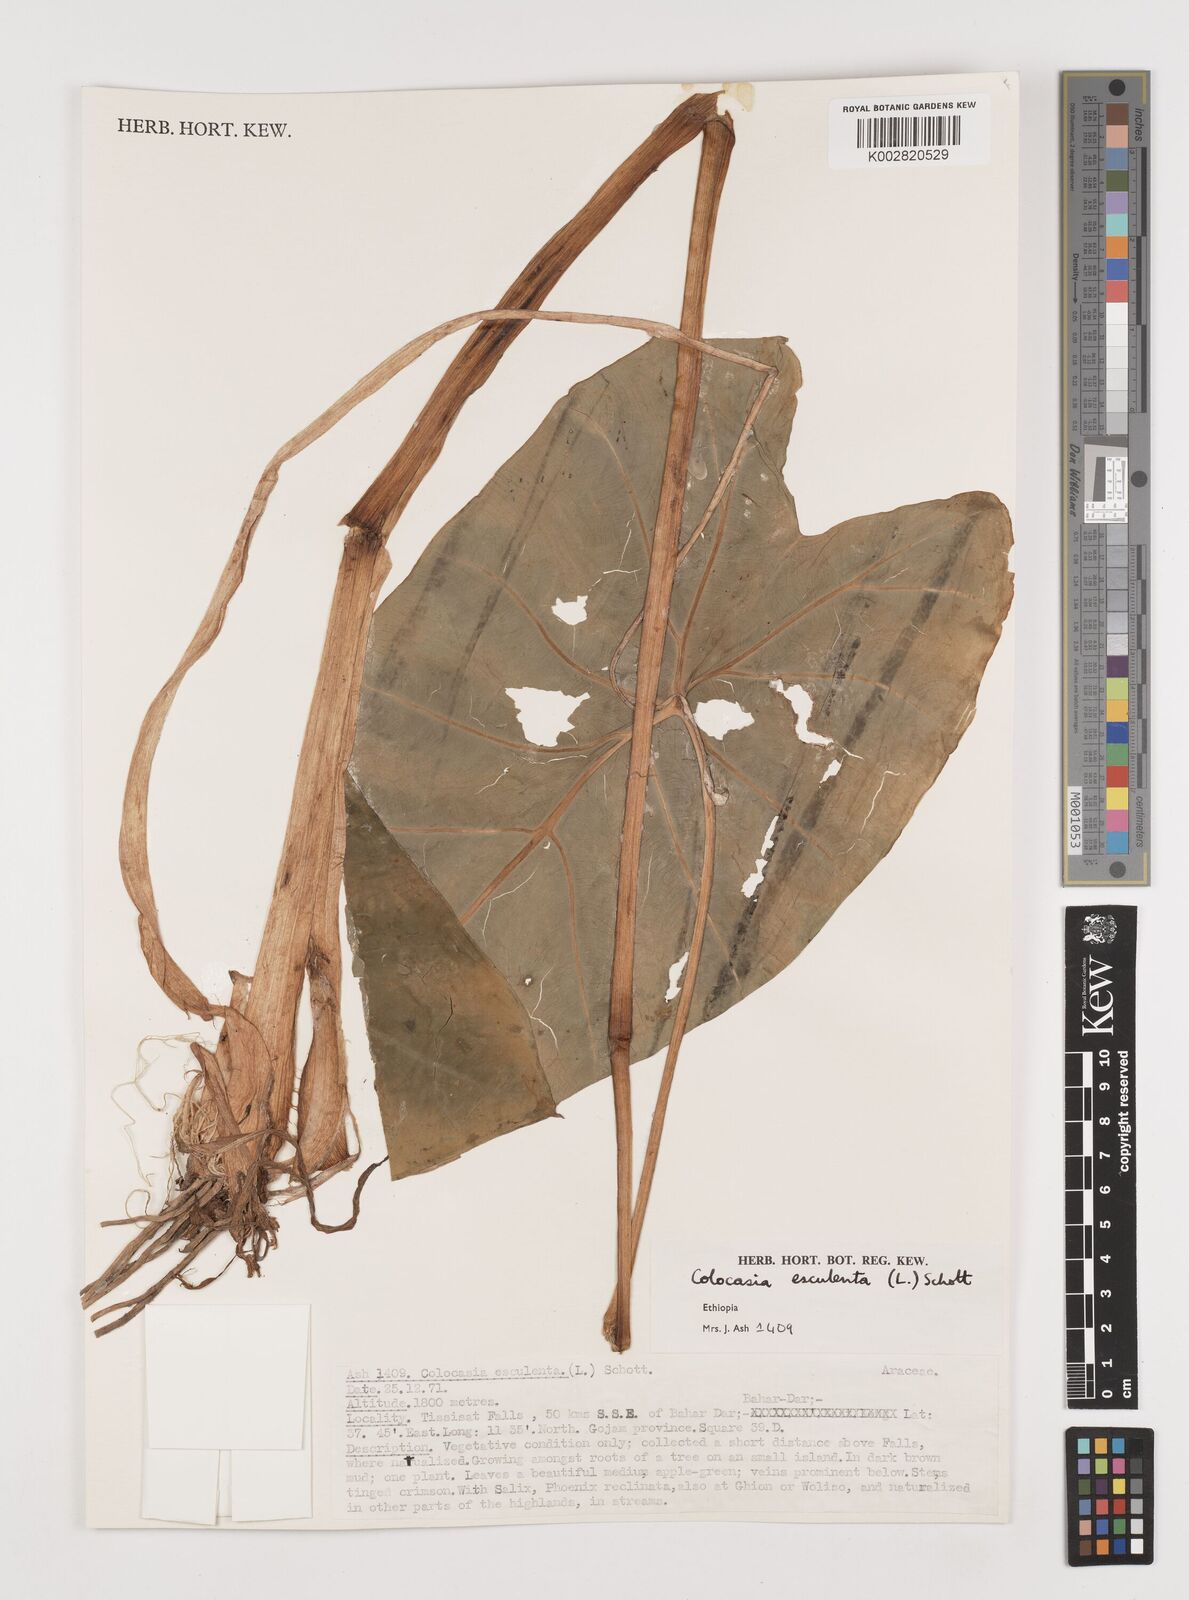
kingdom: Plantae
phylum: Tracheophyta
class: Liliopsida
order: Alismatales
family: Araceae
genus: Colocasia
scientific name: Colocasia esculenta
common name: Taro
